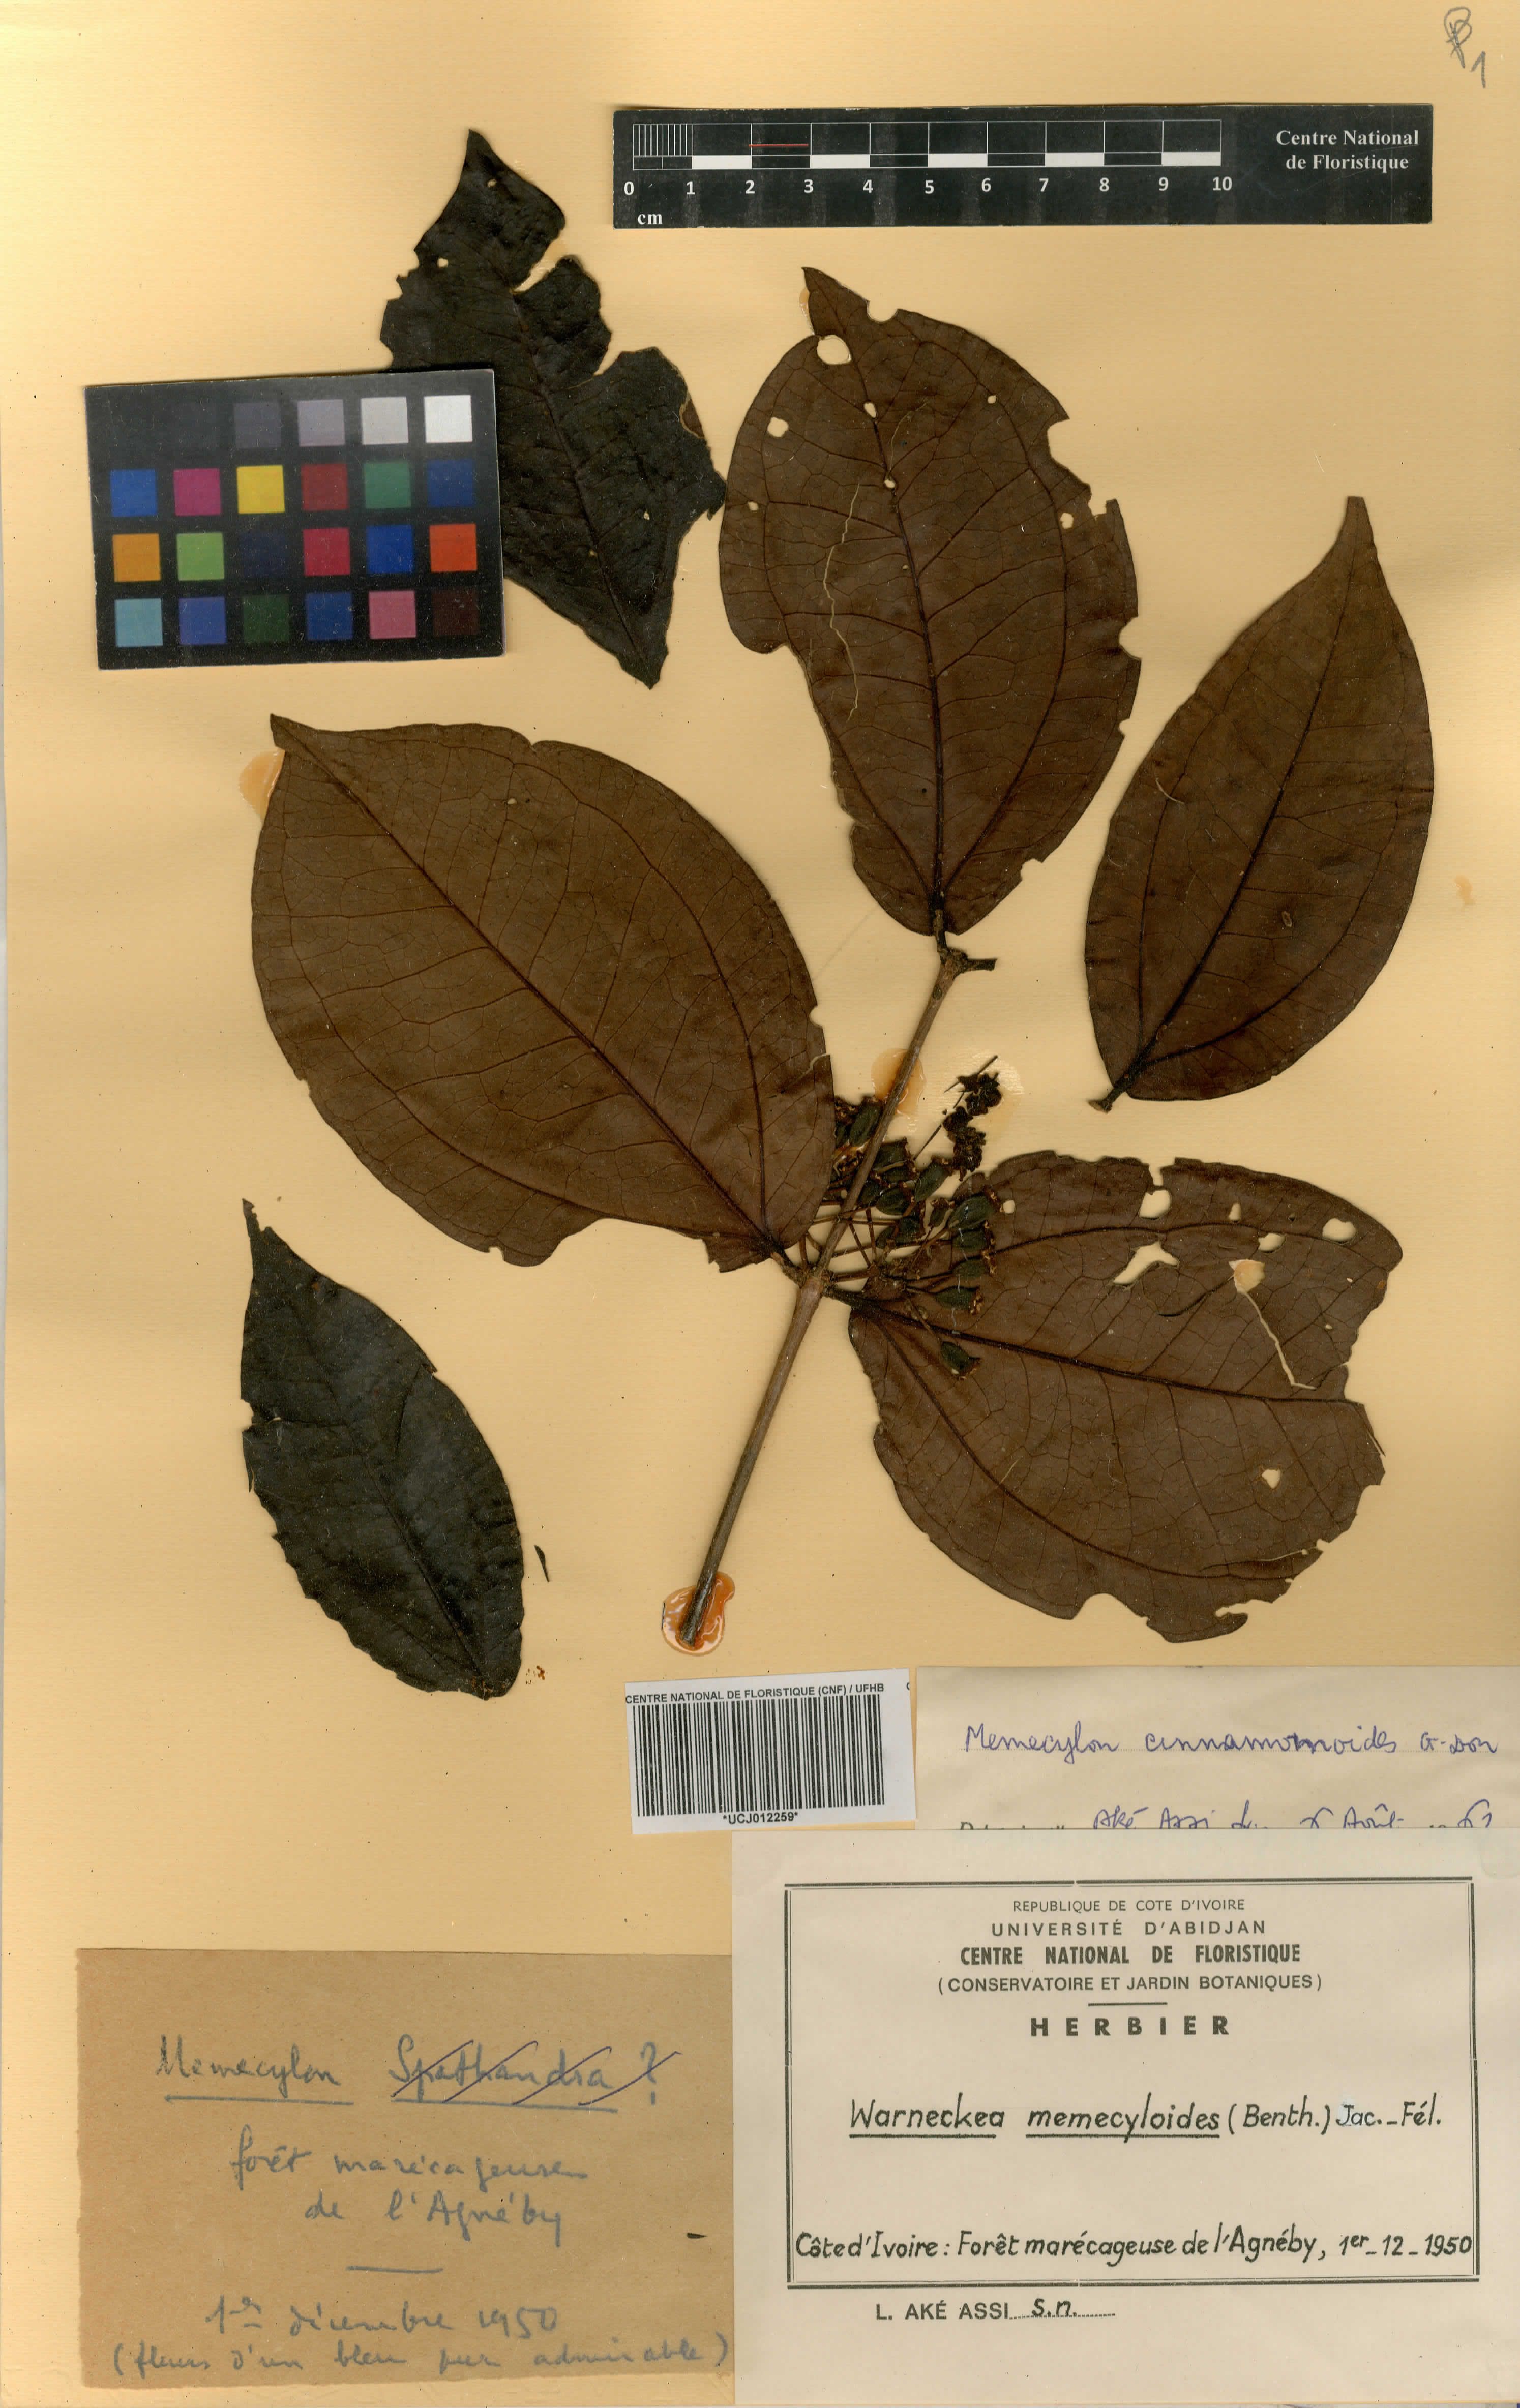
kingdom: Plantae
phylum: Tracheophyta
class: Magnoliopsida
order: Myrtales
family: Melastomataceae
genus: Warneckea
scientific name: Warneckea memecyloides
